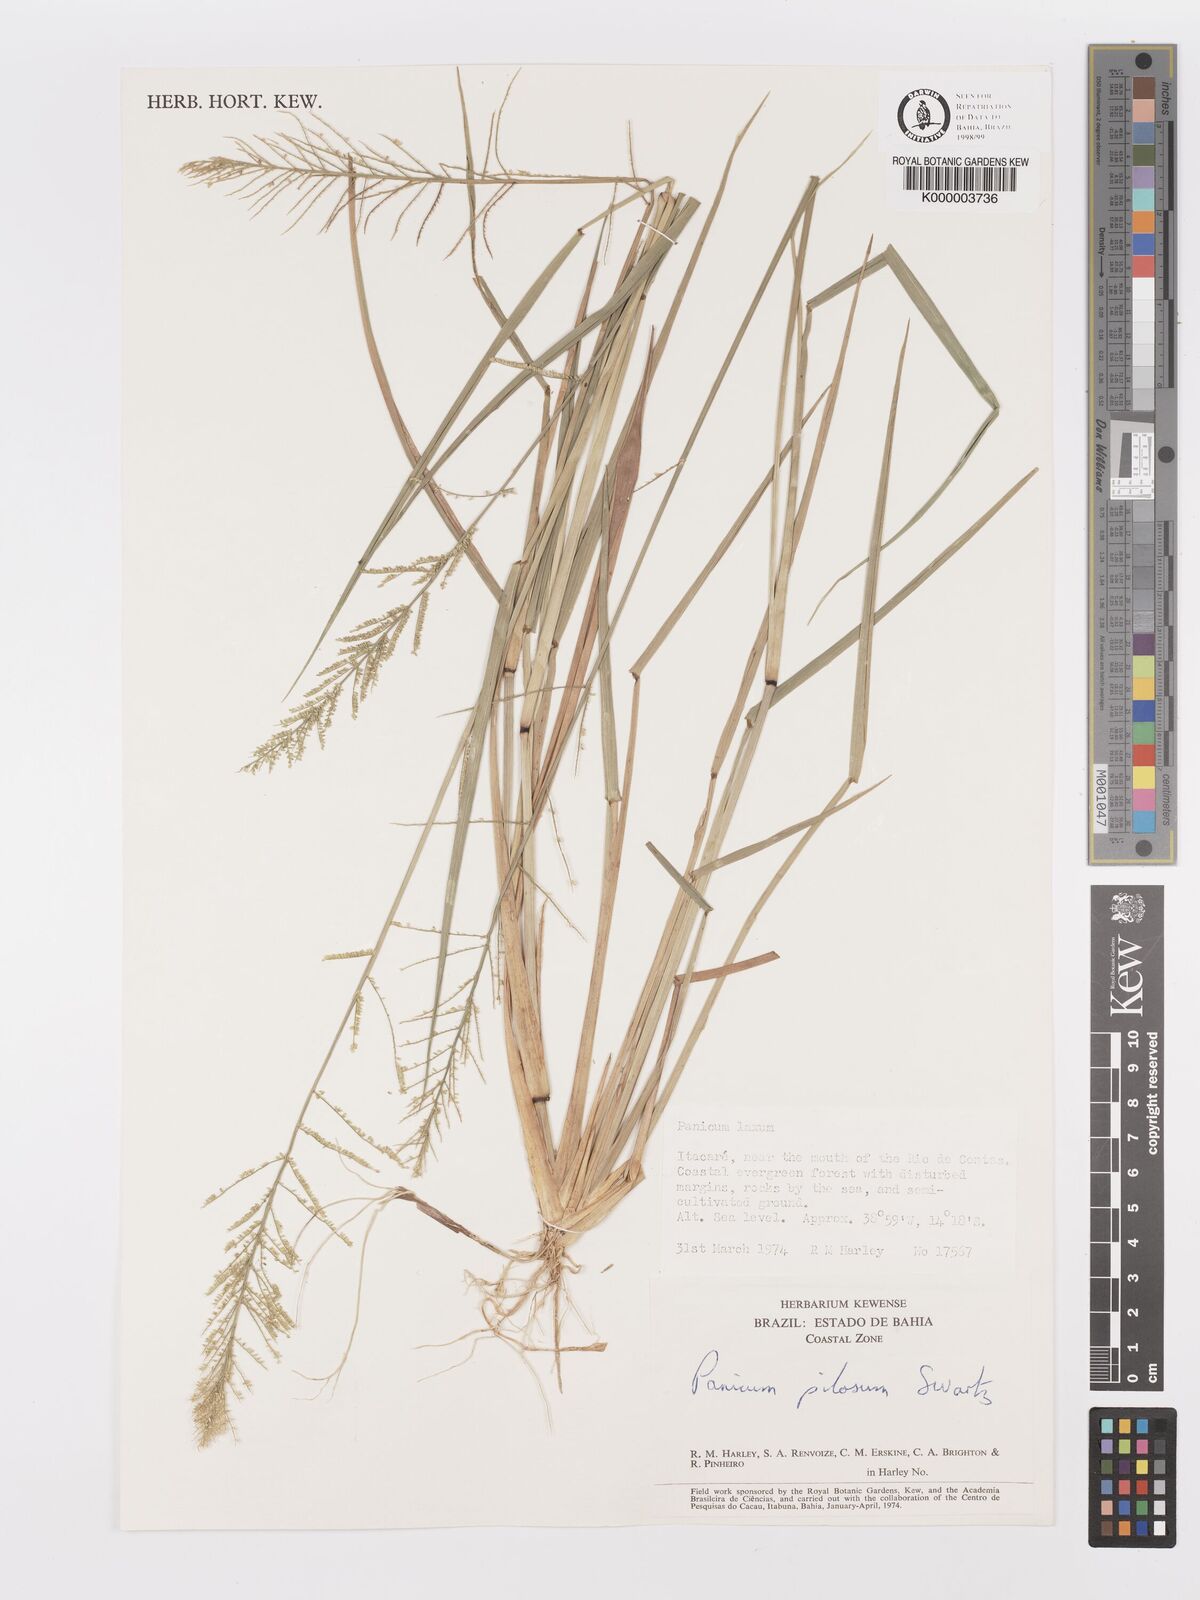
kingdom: Plantae
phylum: Tracheophyta
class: Liliopsida
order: Poales
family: Poaceae
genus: Rugoloa
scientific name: Rugoloa pilosa
